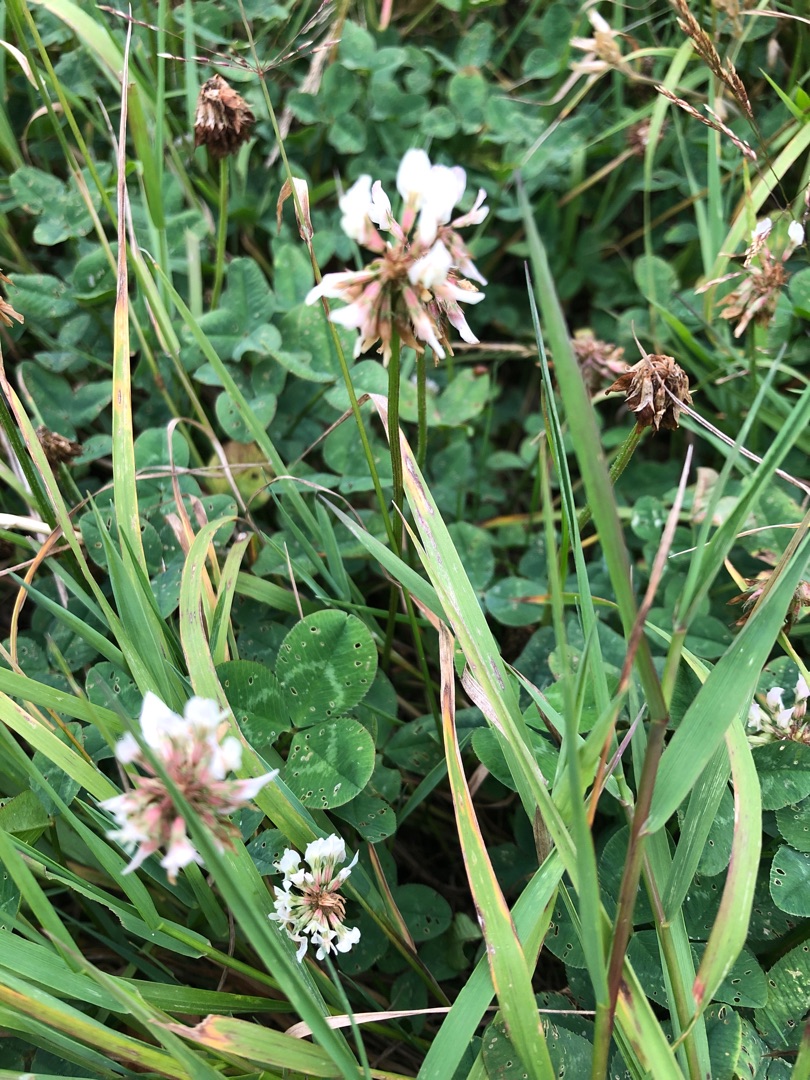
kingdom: Plantae
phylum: Tracheophyta
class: Magnoliopsida
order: Fabales
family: Fabaceae
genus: Trifolium
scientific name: Trifolium repens
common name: Hvid-kløver
